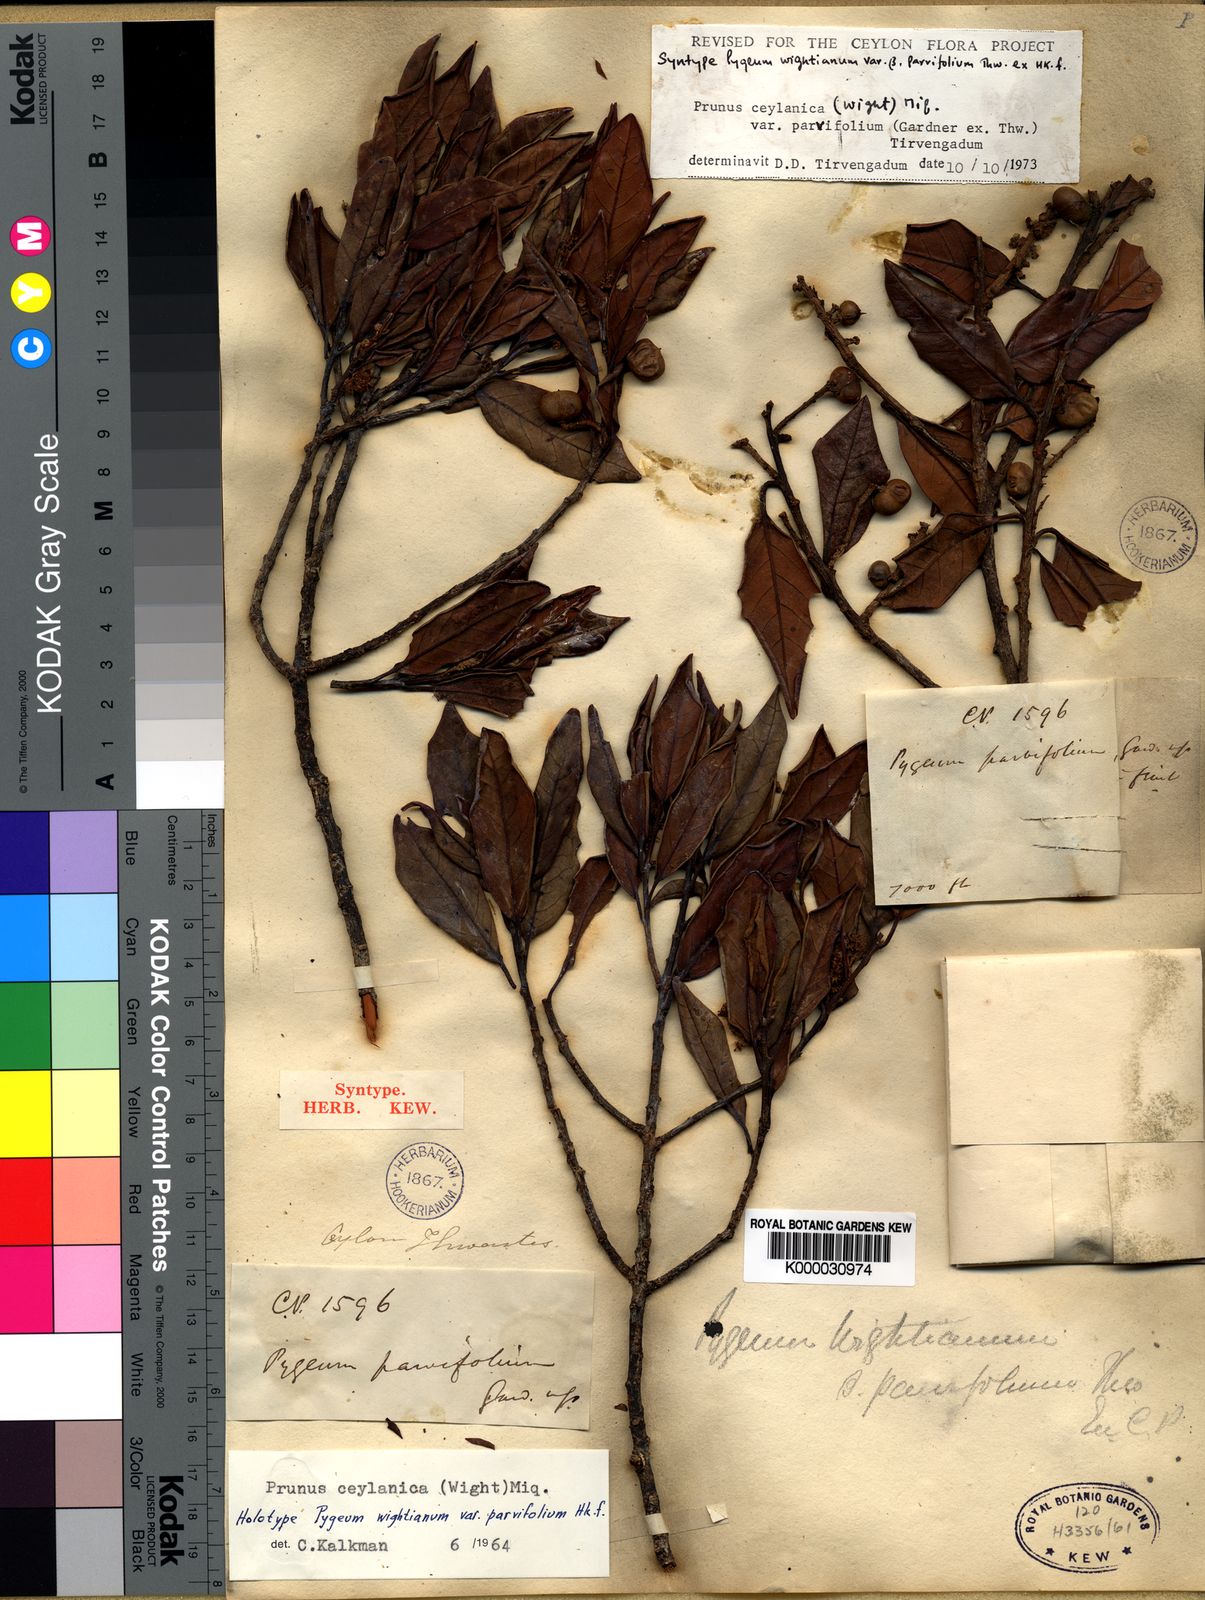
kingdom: Plantae
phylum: Tracheophyta
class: Magnoliopsida
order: Rosales
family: Rosaceae
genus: Prunus
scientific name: Prunus ceylanica
